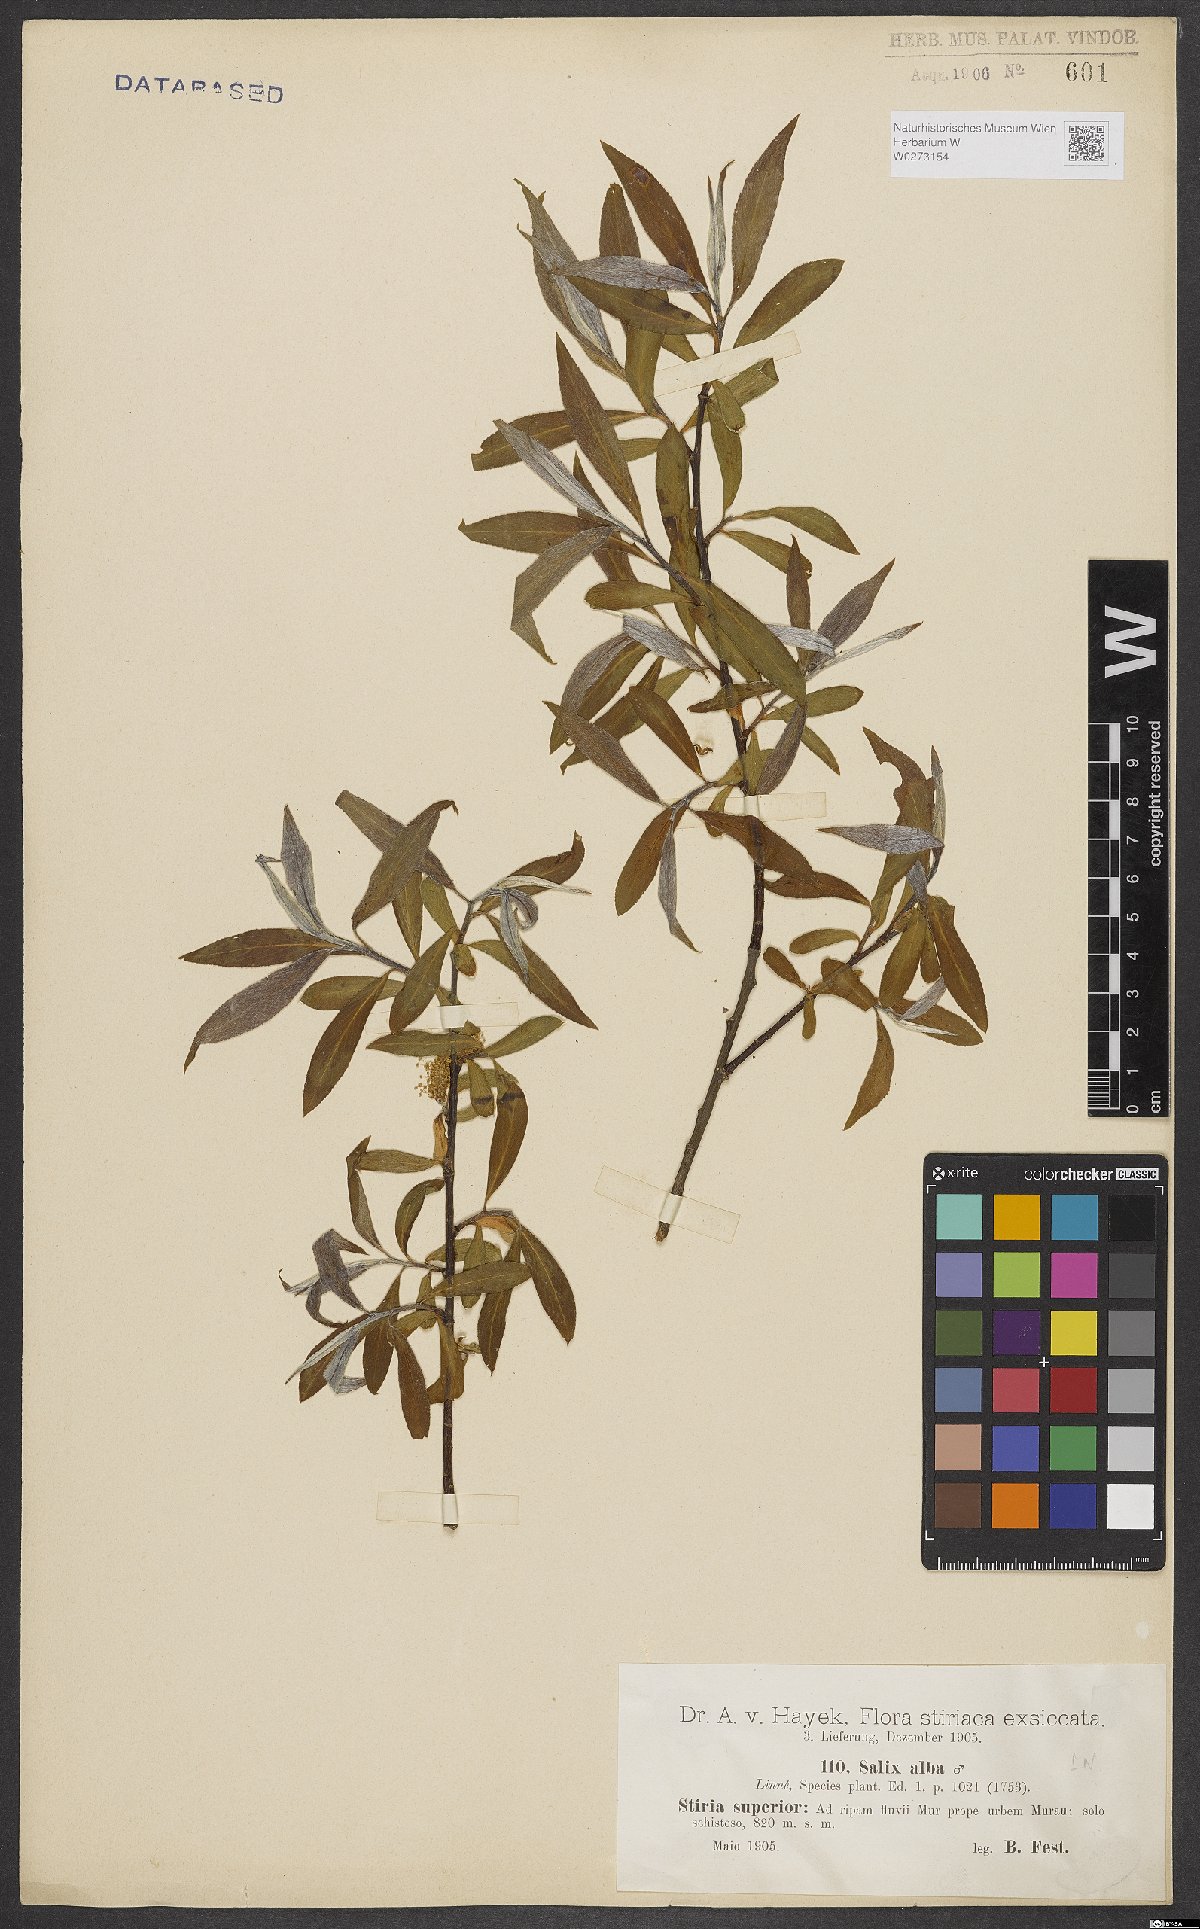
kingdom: Plantae
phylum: Tracheophyta
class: Magnoliopsida
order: Malpighiales
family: Salicaceae
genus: Salix
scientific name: Salix alba
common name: White willow
